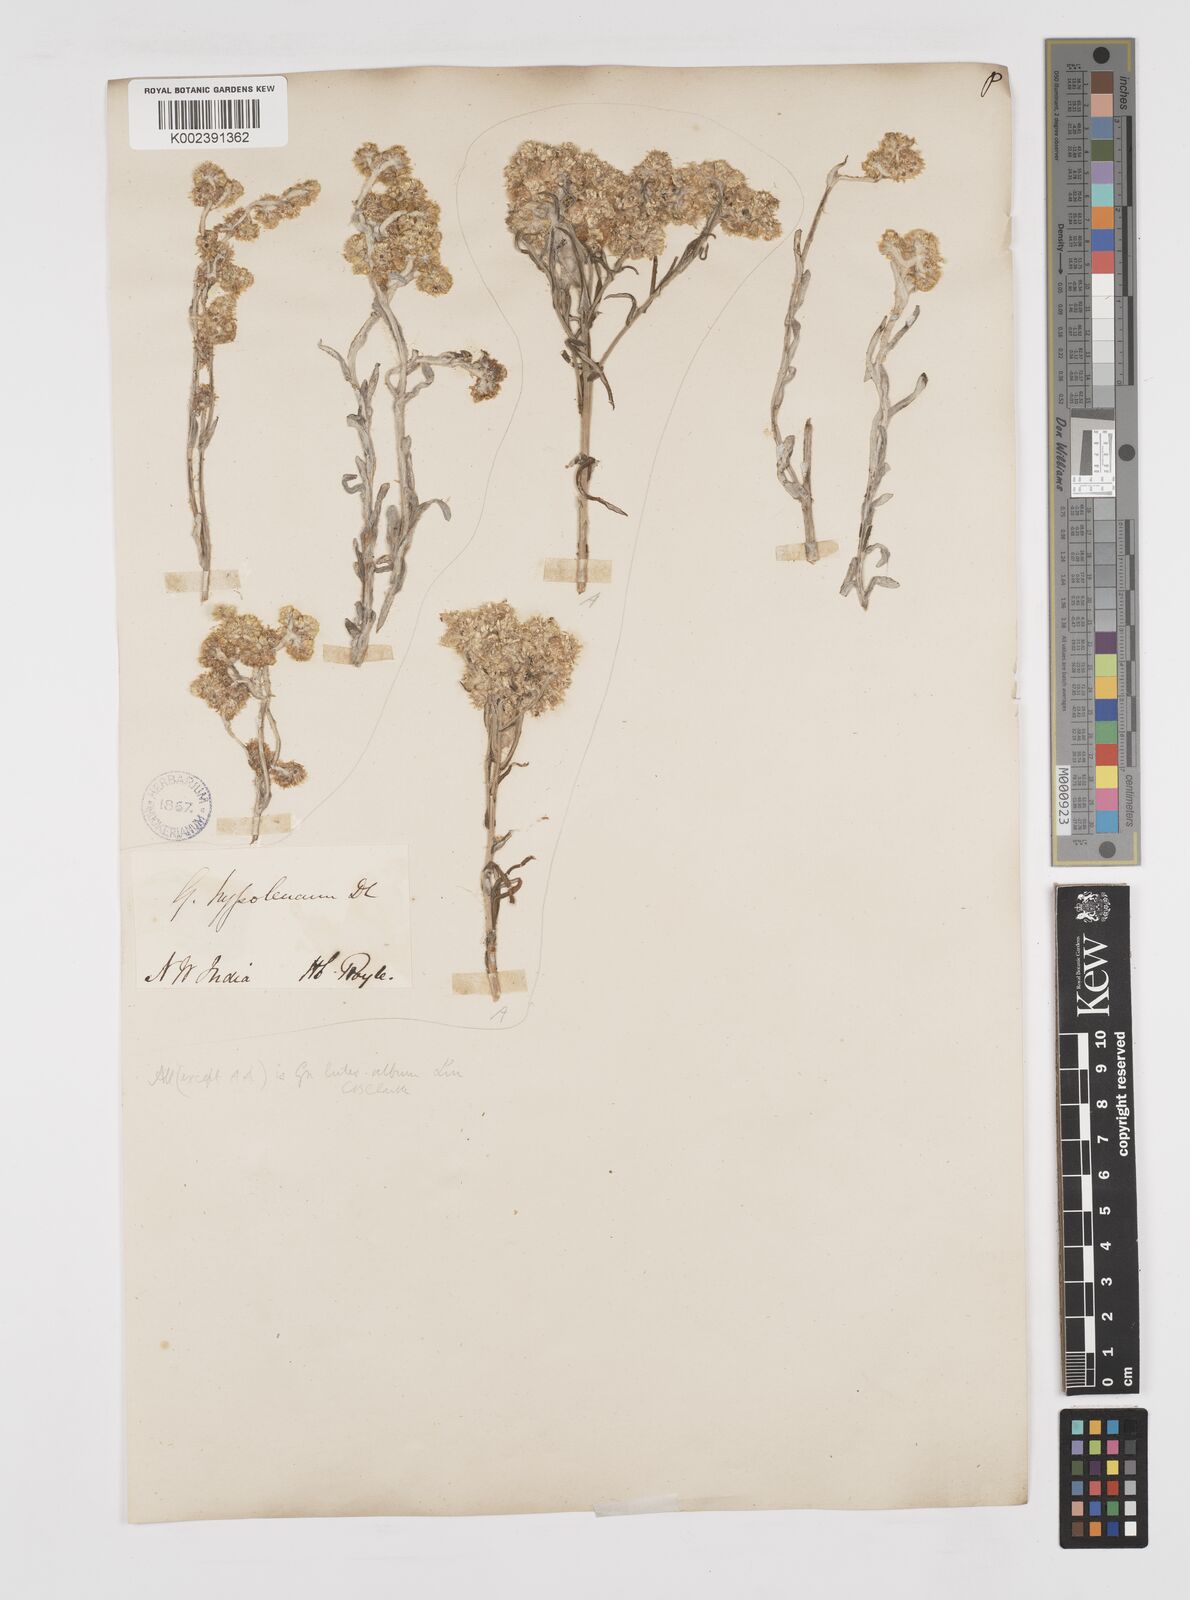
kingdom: Plantae
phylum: Tracheophyta
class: Magnoliopsida
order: Asterales
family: Asteraceae
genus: Pseudognaphalium
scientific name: Pseudognaphalium hypoleucum
